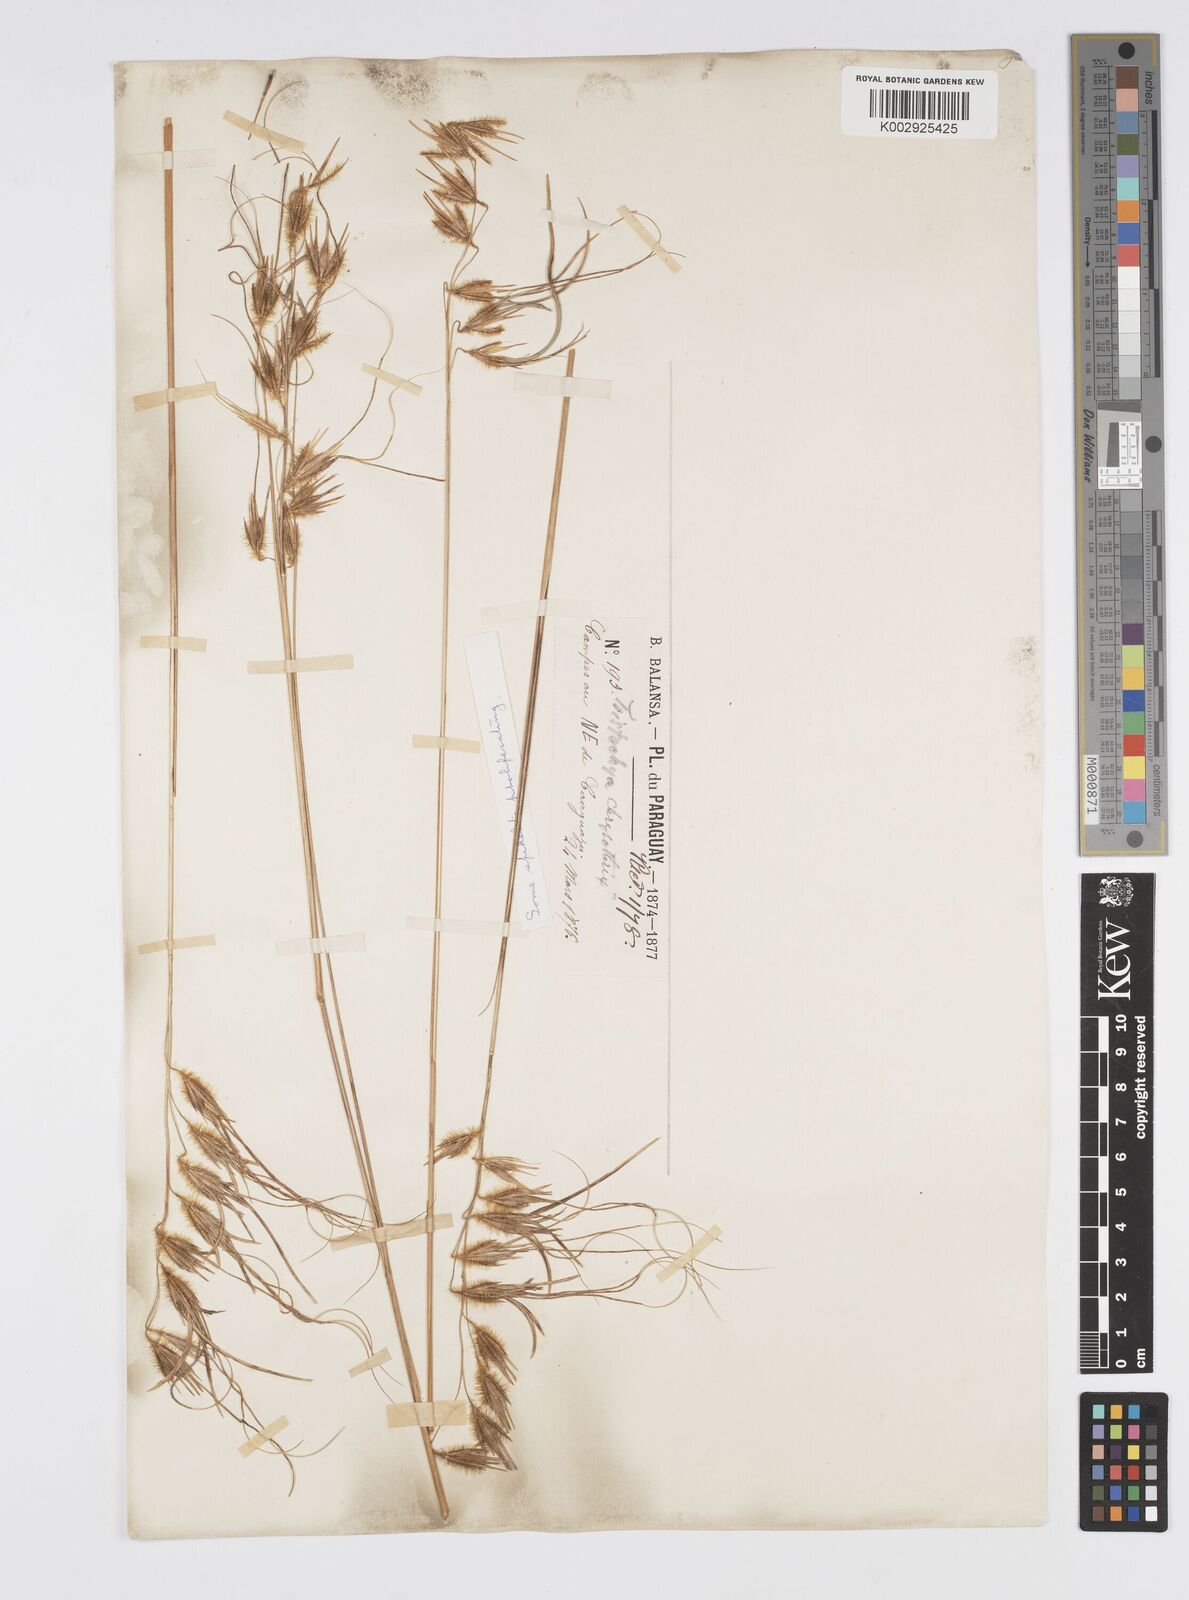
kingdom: Plantae
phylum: Tracheophyta
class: Liliopsida
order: Poales
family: Poaceae
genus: Loudetiopsis
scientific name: Loudetiopsis chrysothrix
